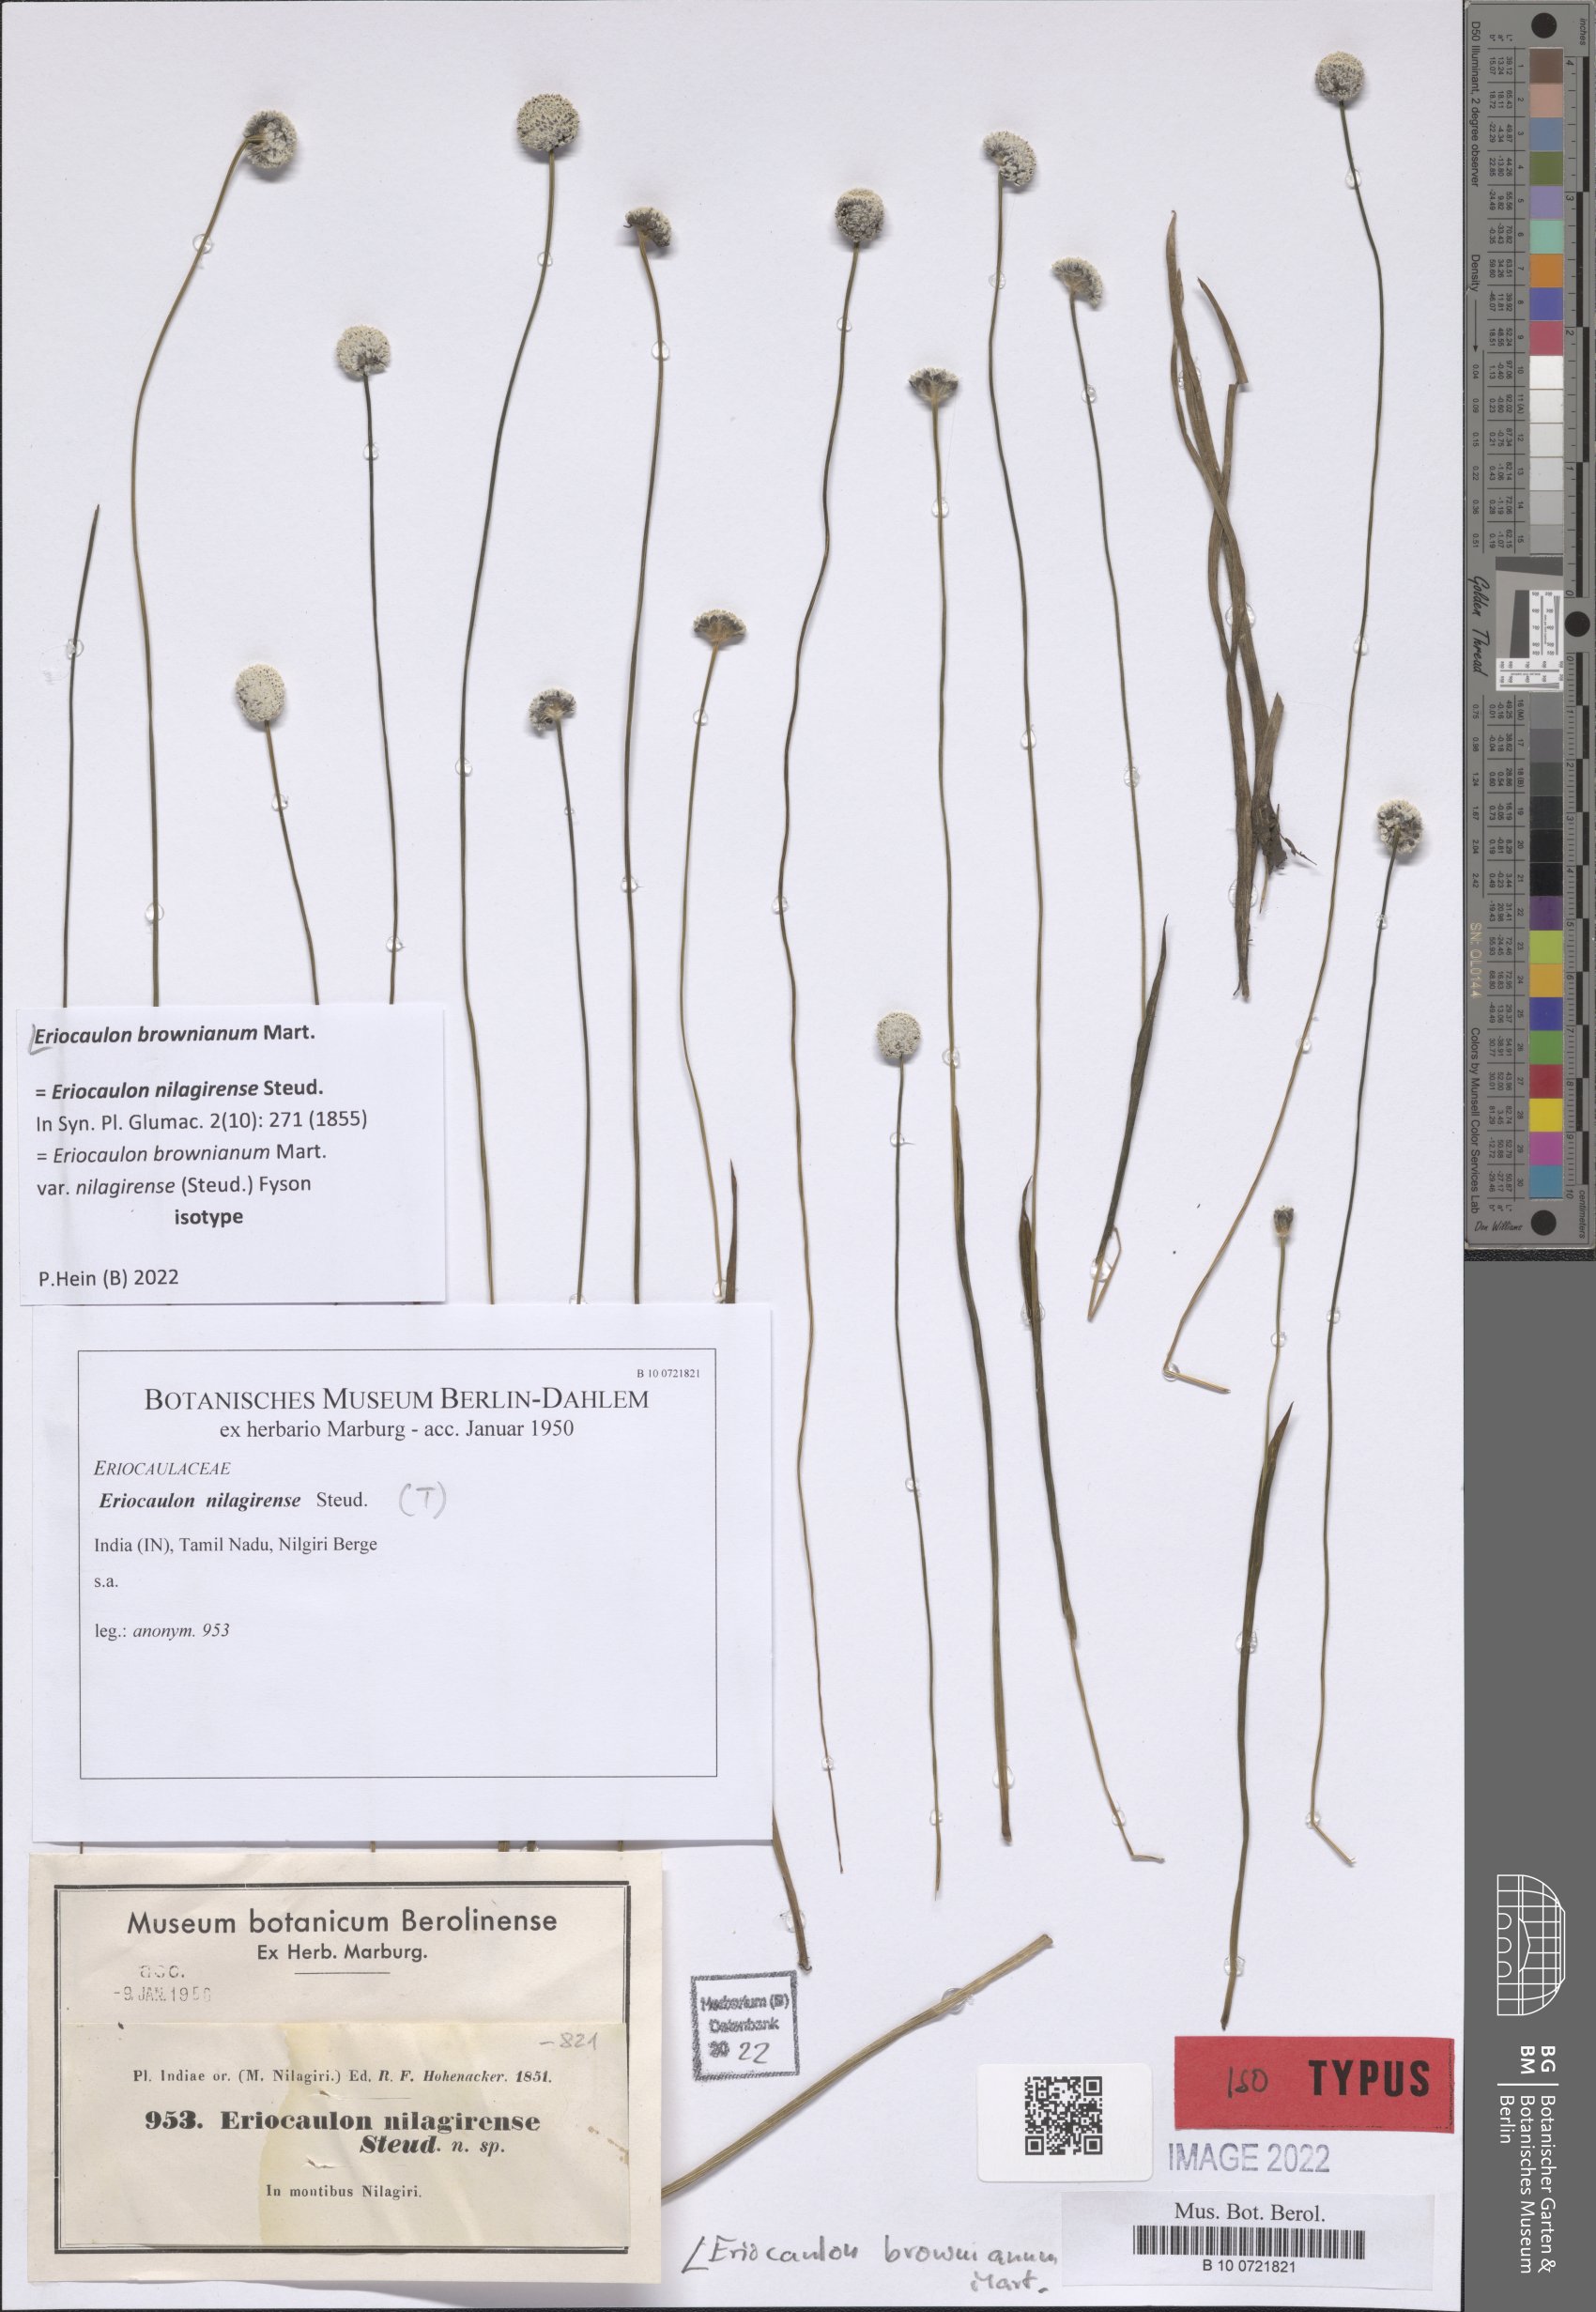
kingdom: Plantae
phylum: Tracheophyta
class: Liliopsida
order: Poales
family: Eriocaulaceae
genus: Eriocaulon
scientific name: Eriocaulon brownianum
